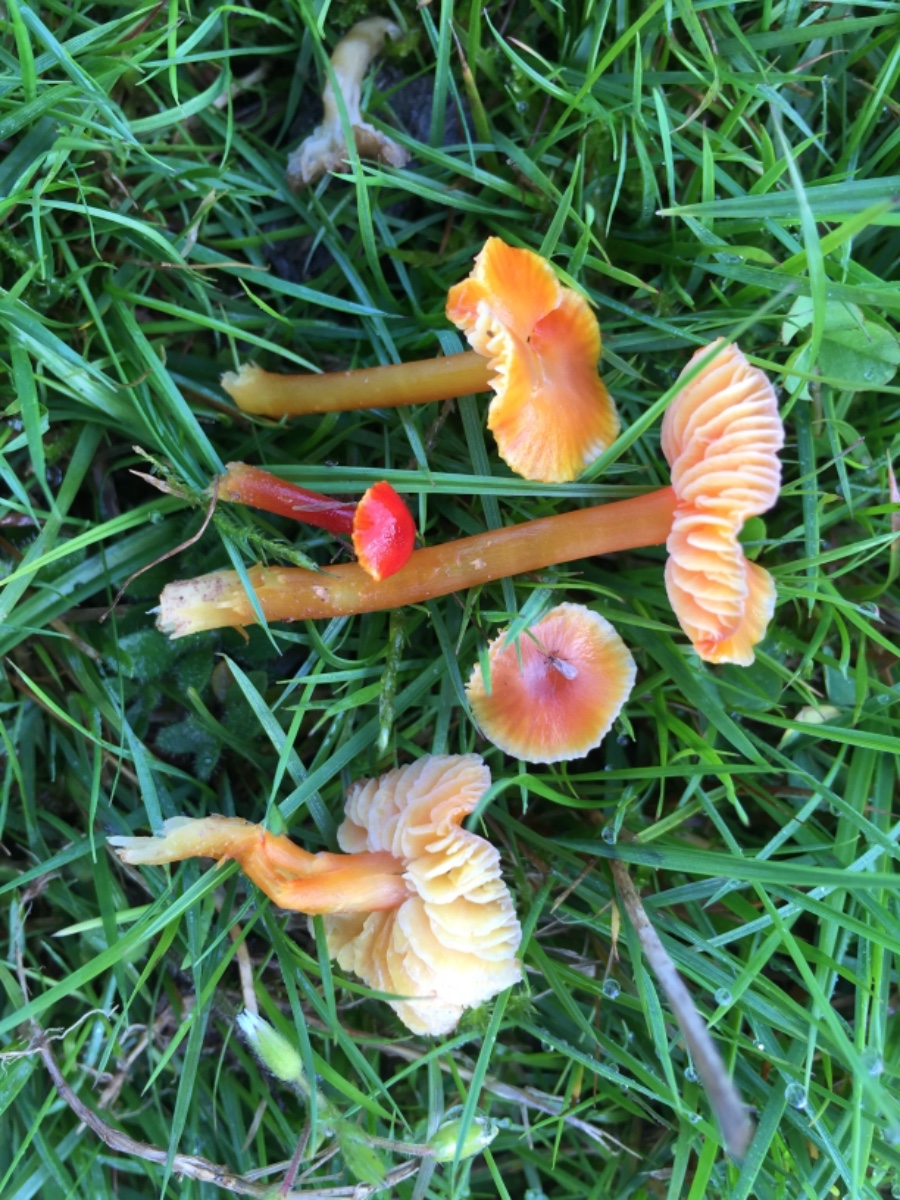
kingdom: Fungi
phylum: Basidiomycota
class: Agaricomycetes
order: Agaricales
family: Hygrophoraceae
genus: Hygrocybe
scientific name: Hygrocybe
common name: vokshat
